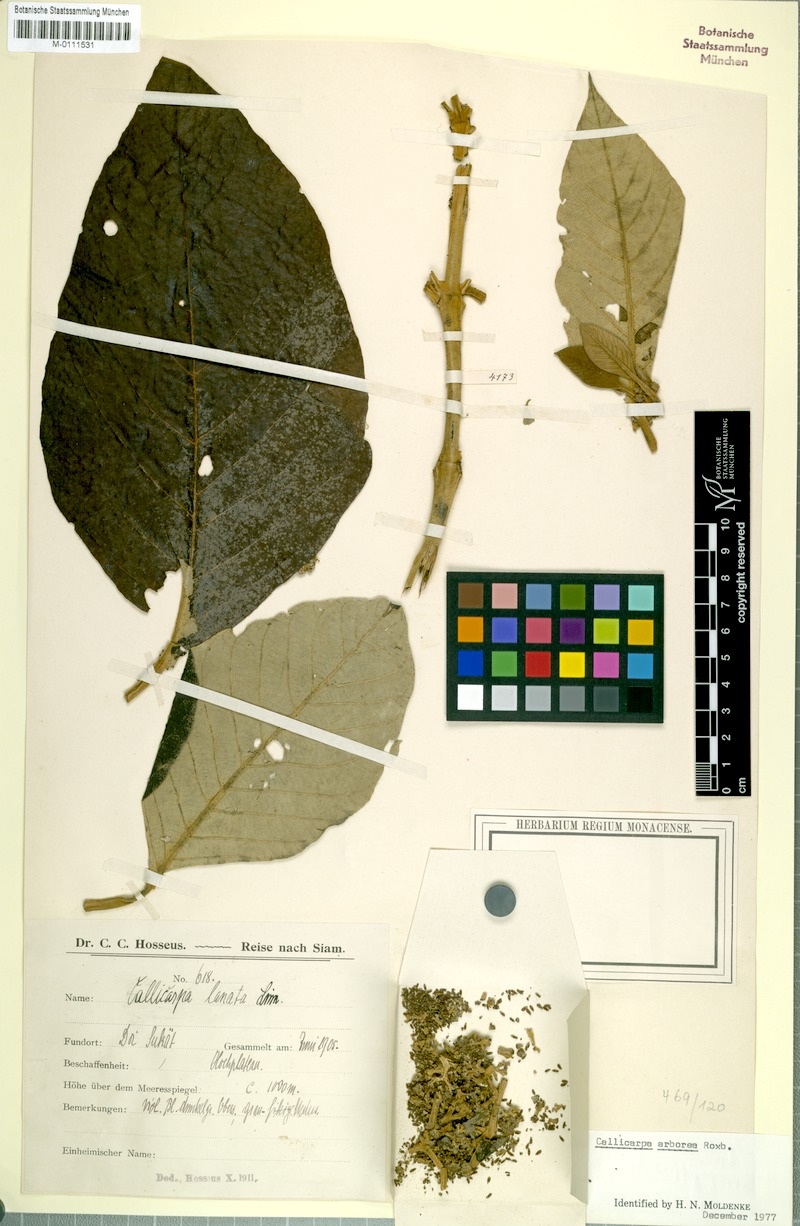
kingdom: Plantae
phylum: Tracheophyta
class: Magnoliopsida
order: Lamiales
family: Lamiaceae
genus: Callicarpa
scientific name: Callicarpa tomentosa
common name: Great woolly malayan-lilac
